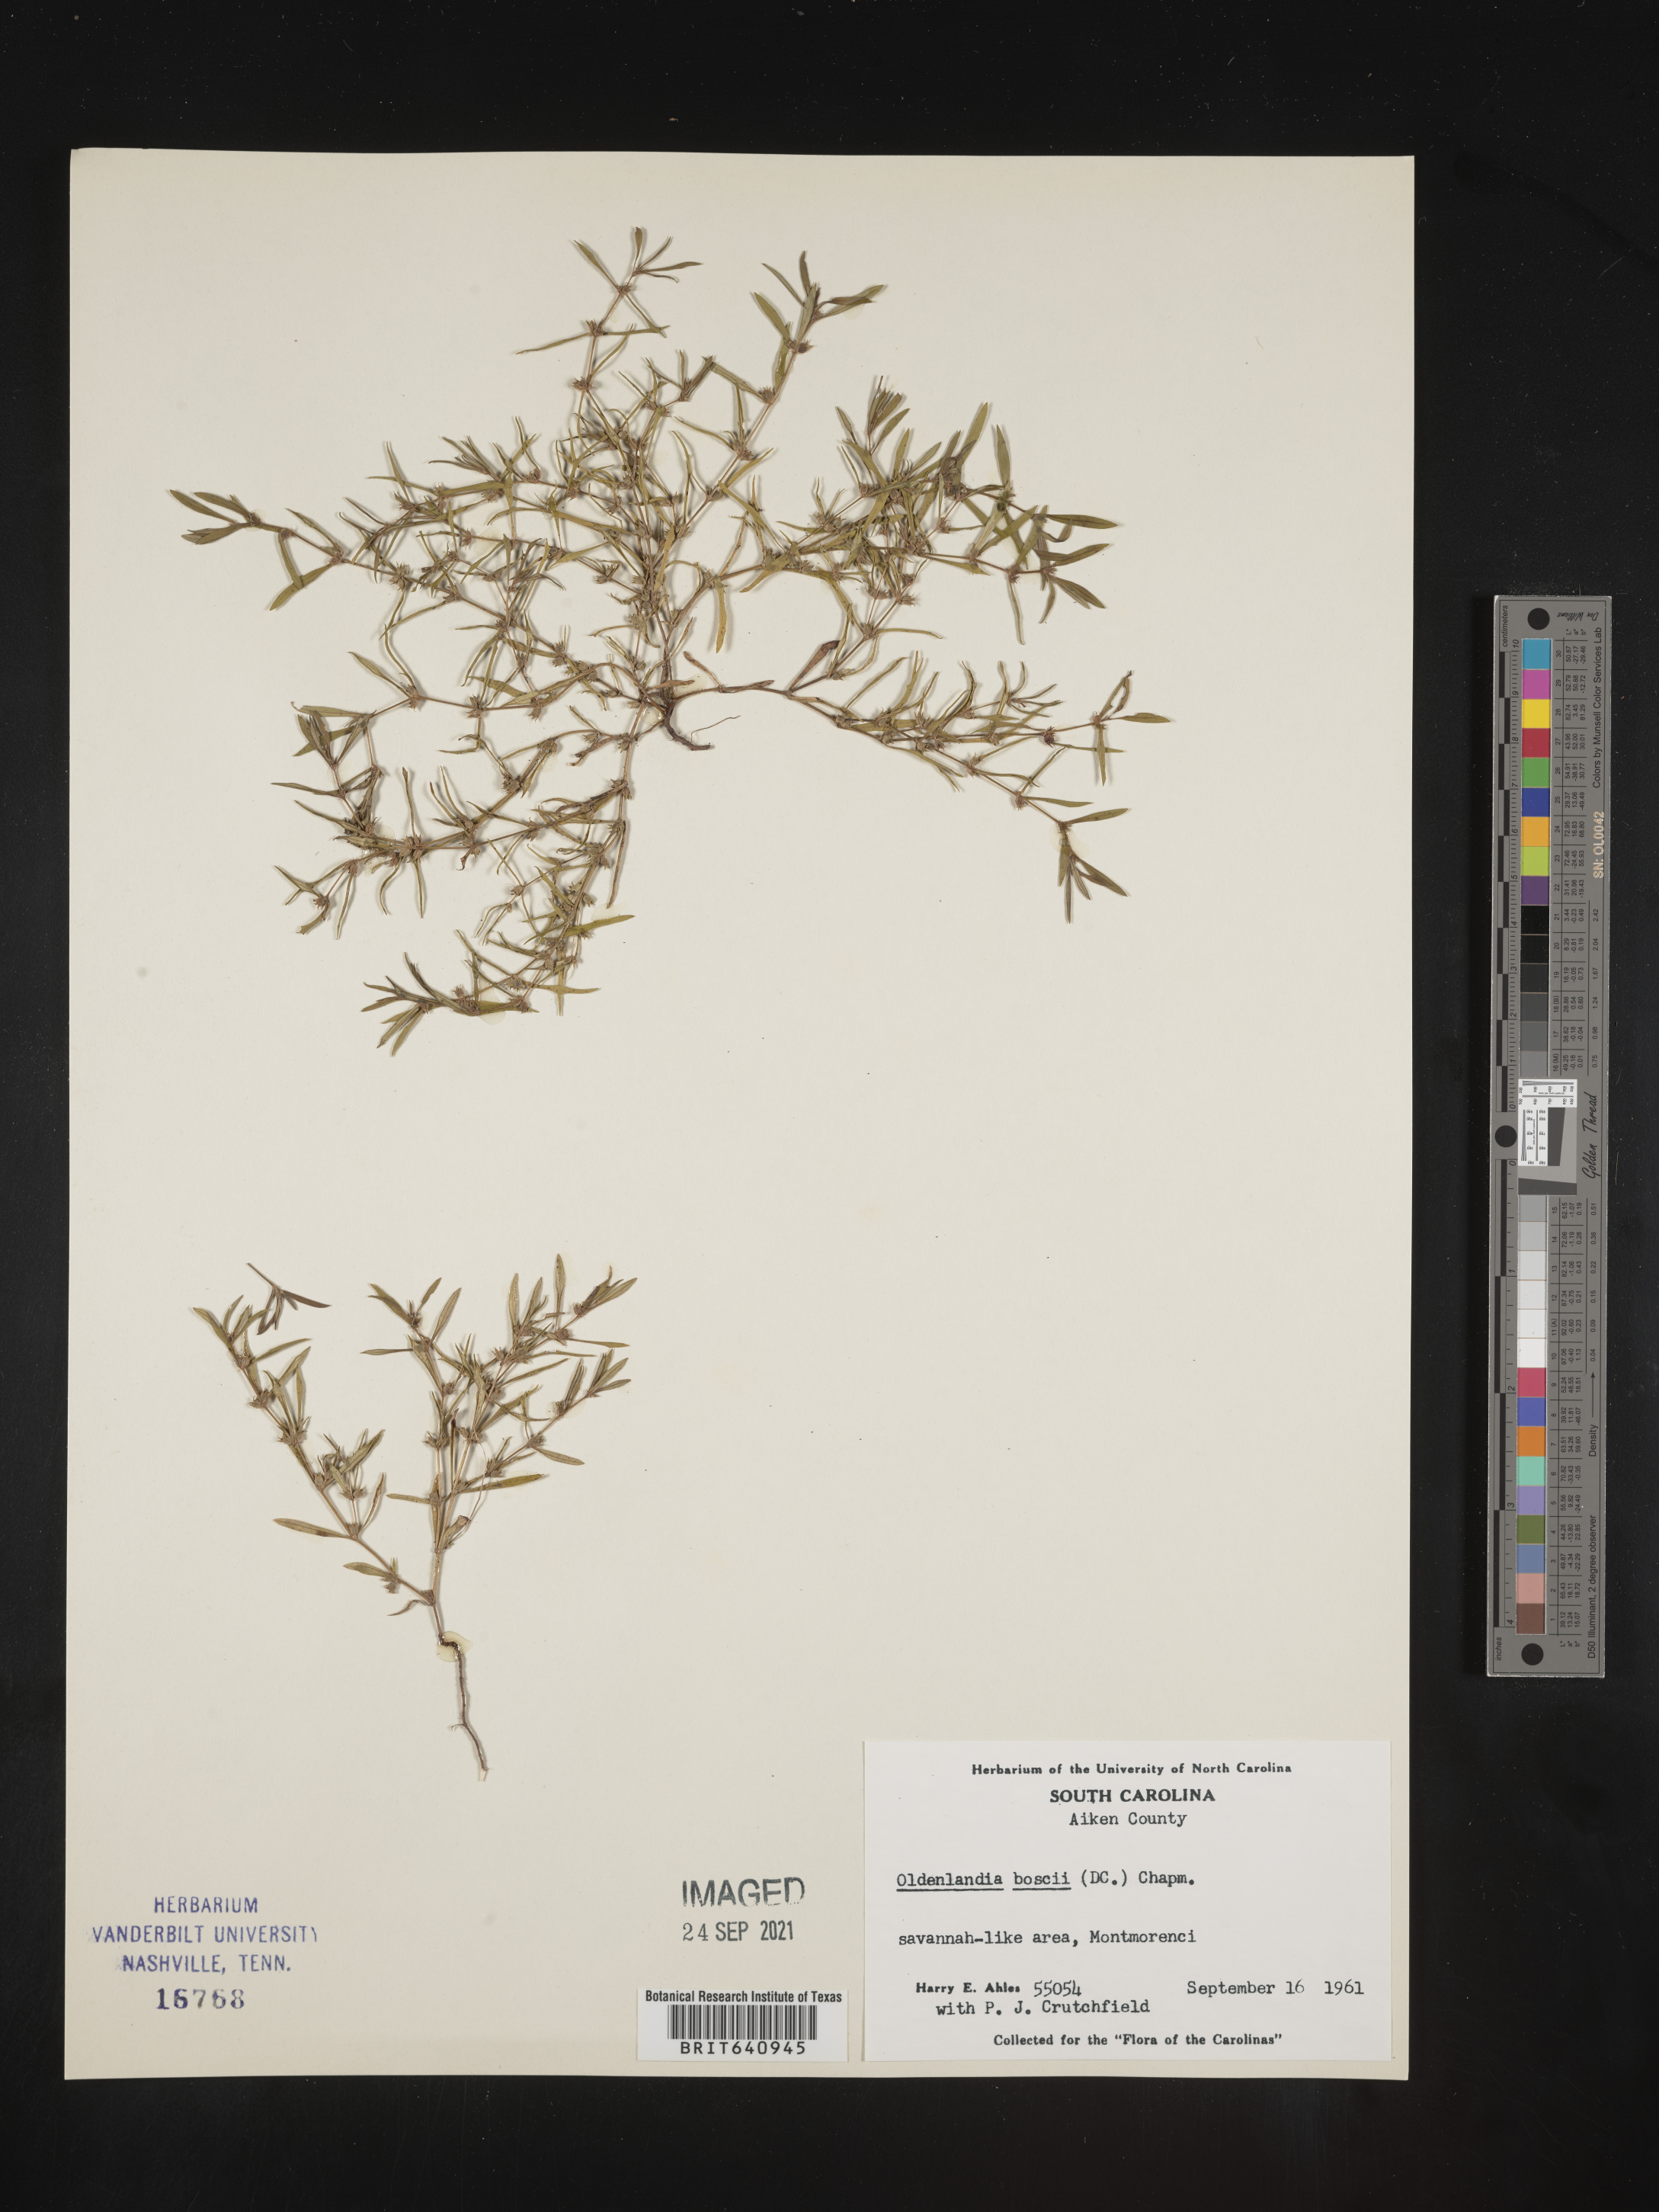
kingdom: Plantae
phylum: Tracheophyta
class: Magnoliopsida
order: Gentianales
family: Rubiaceae
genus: Oldenlandia
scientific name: Oldenlandia boscii
